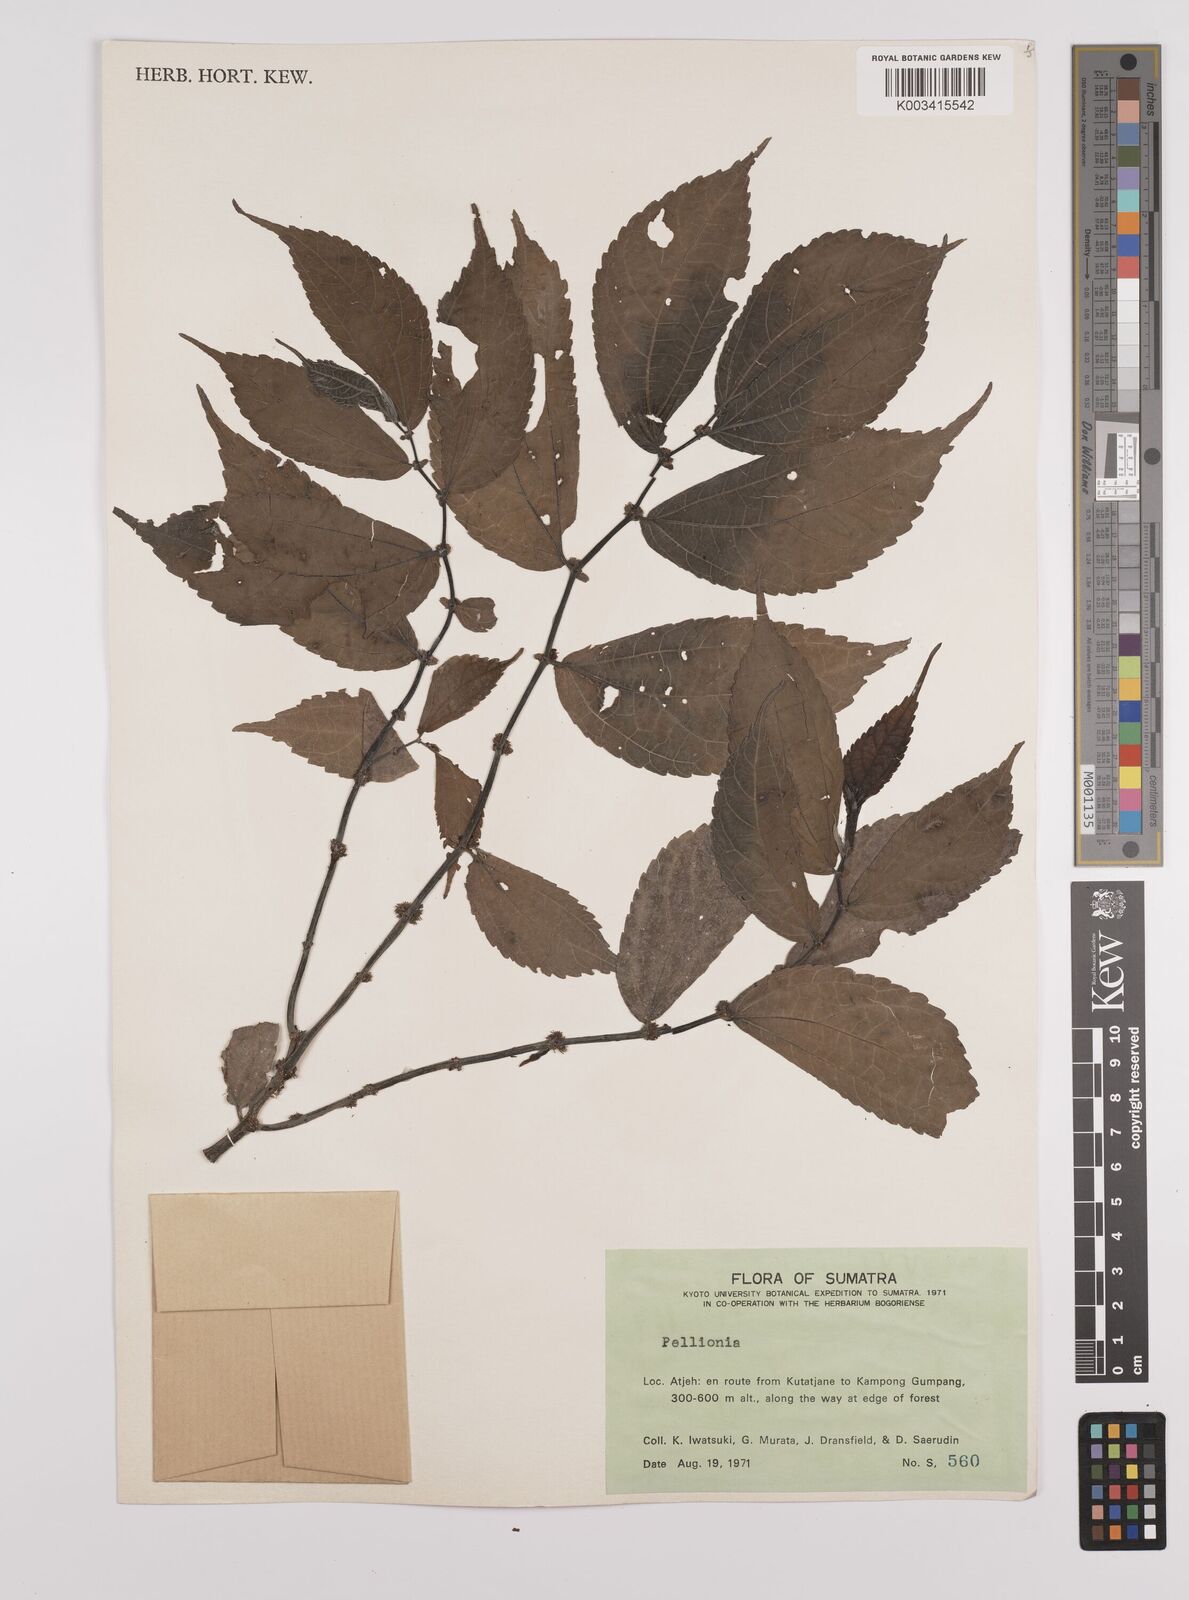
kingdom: Plantae
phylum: Tracheophyta
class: Magnoliopsida
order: Rosales
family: Urticaceae
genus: Elatostema
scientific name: Elatostema
